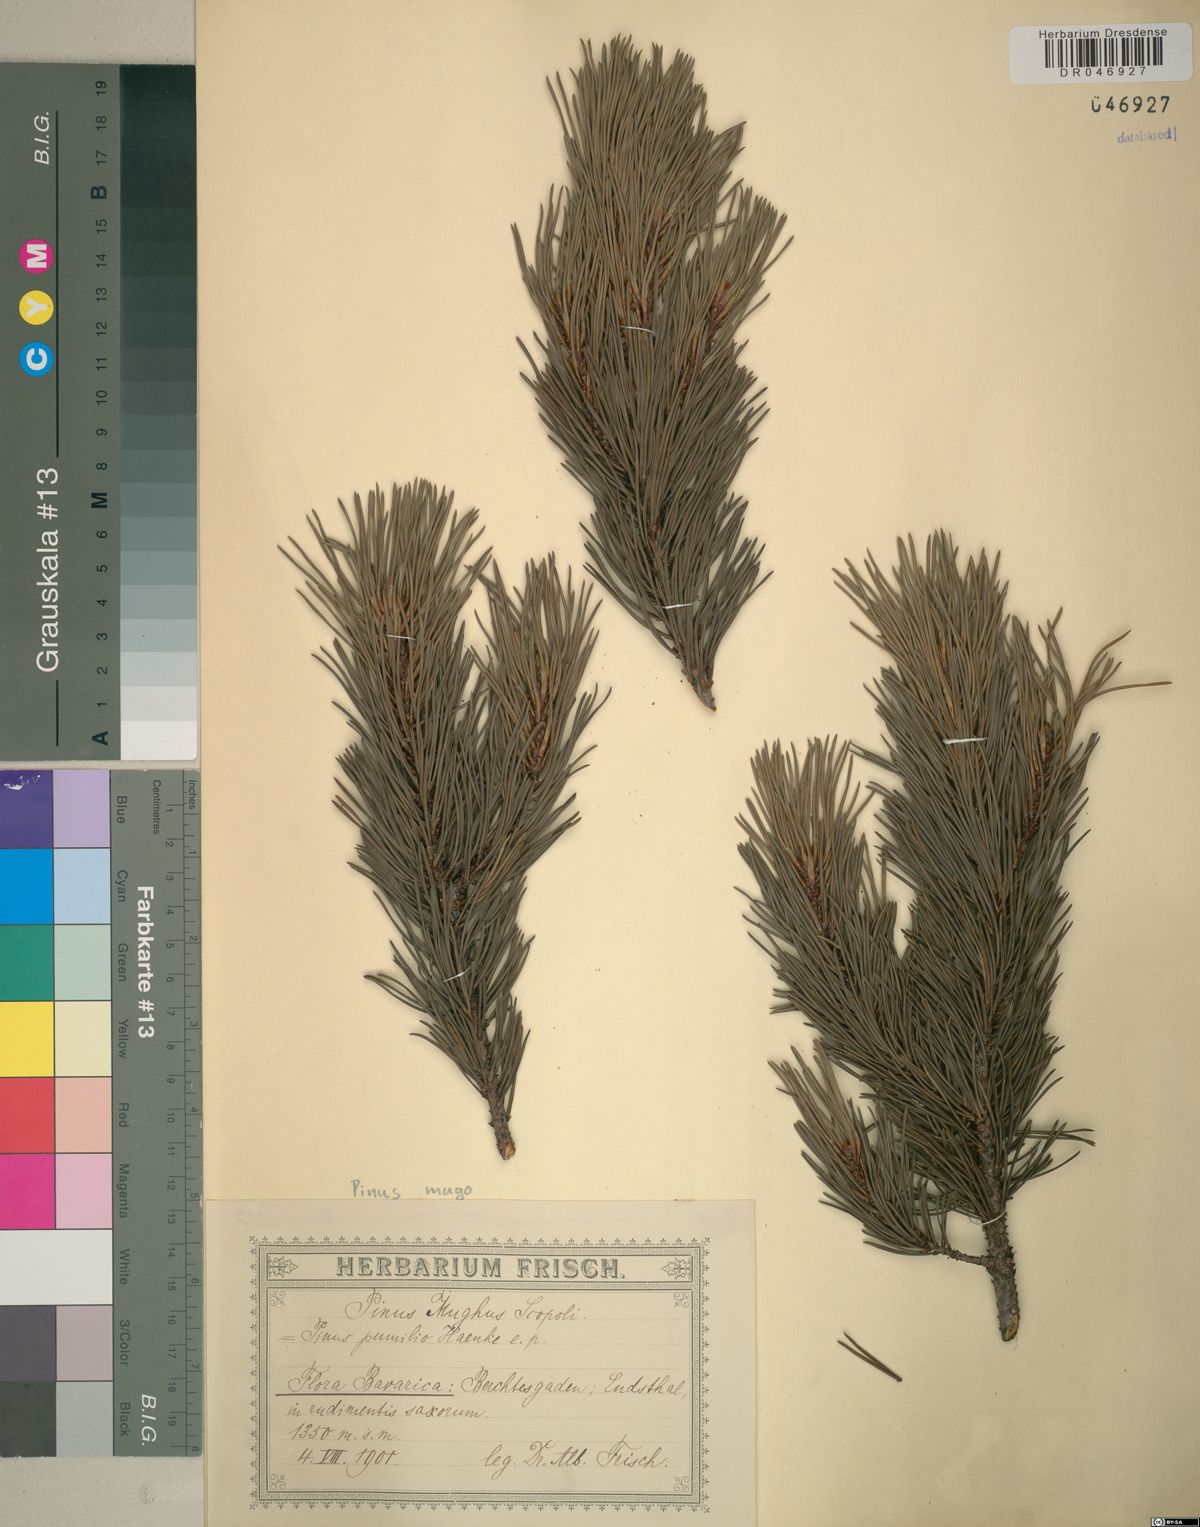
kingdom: Plantae
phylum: Tracheophyta
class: Pinopsida
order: Pinales
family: Pinaceae
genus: Pinus
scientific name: Pinus mugo
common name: Mugo pine
